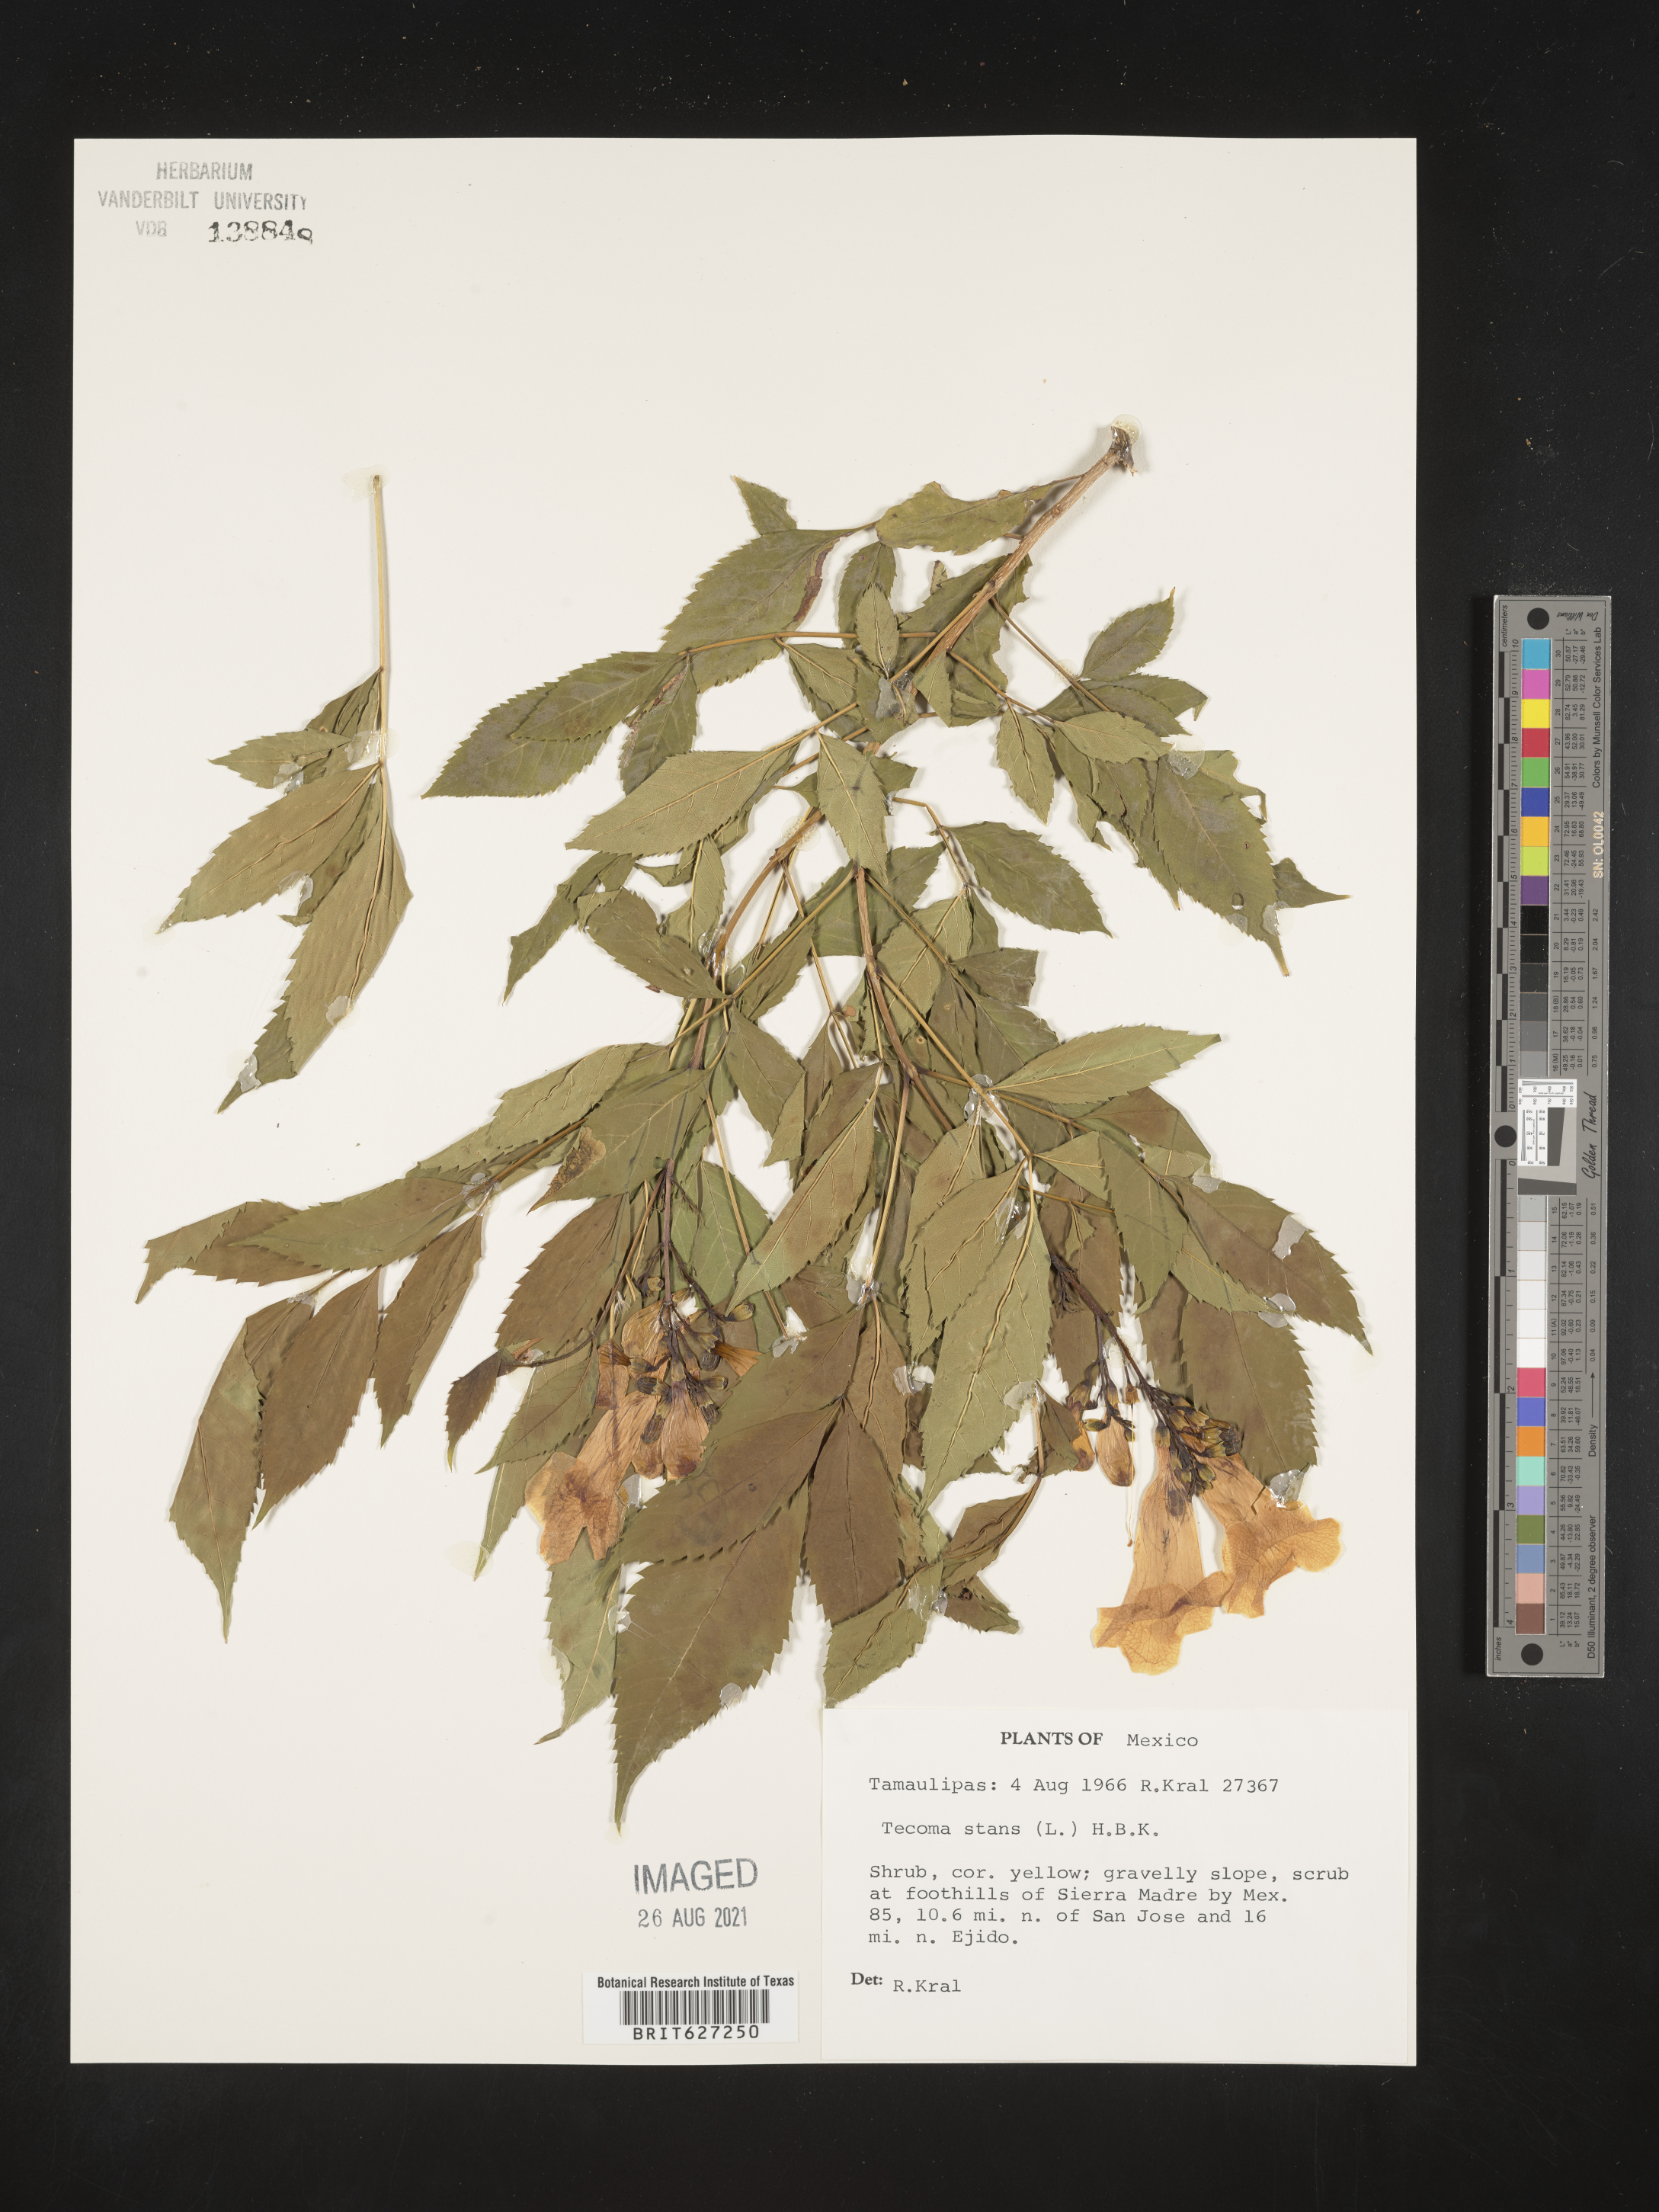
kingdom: Plantae
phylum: Tracheophyta
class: Magnoliopsida
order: Lamiales
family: Bignoniaceae
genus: Tecoma
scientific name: Tecoma
